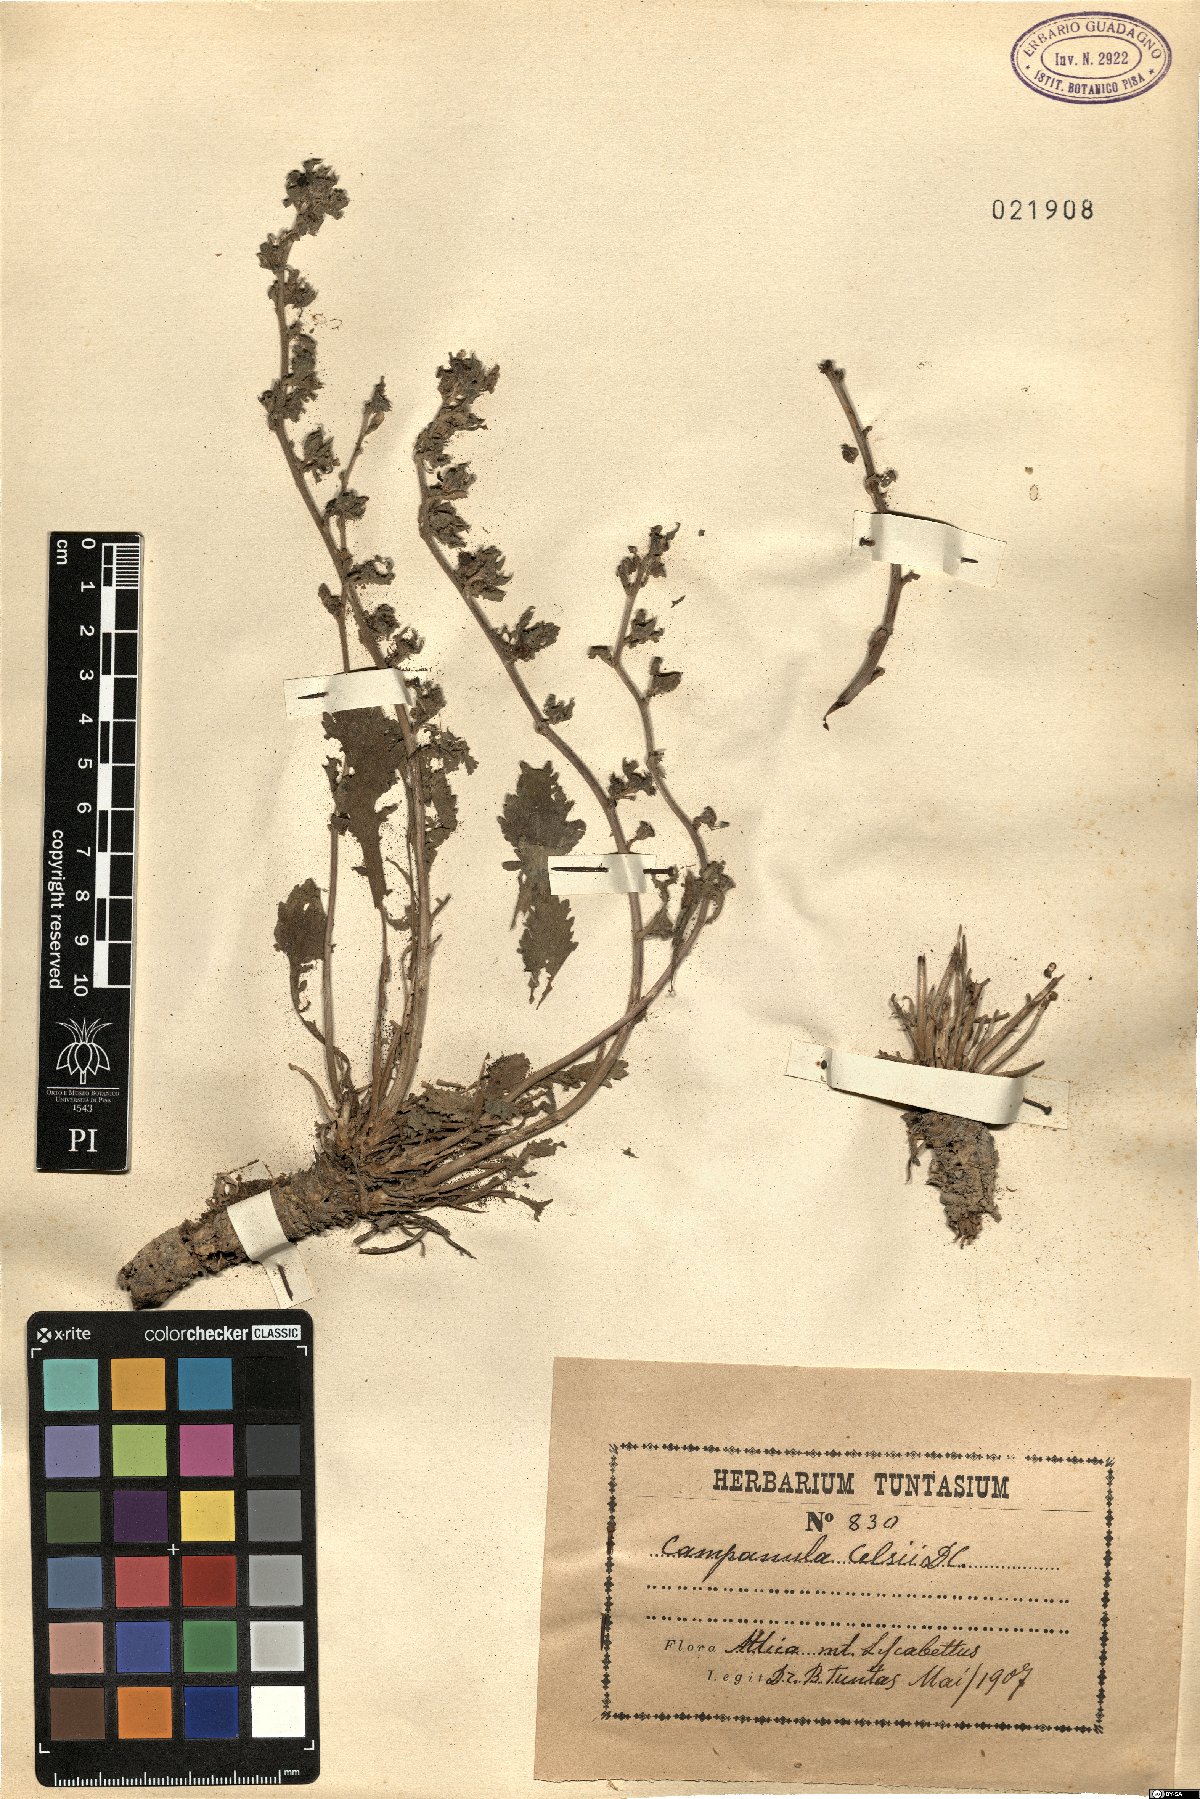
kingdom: Plantae
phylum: Tracheophyta
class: Magnoliopsida
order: Asterales
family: Campanulaceae
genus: Campanula
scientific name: Campanula celsii
